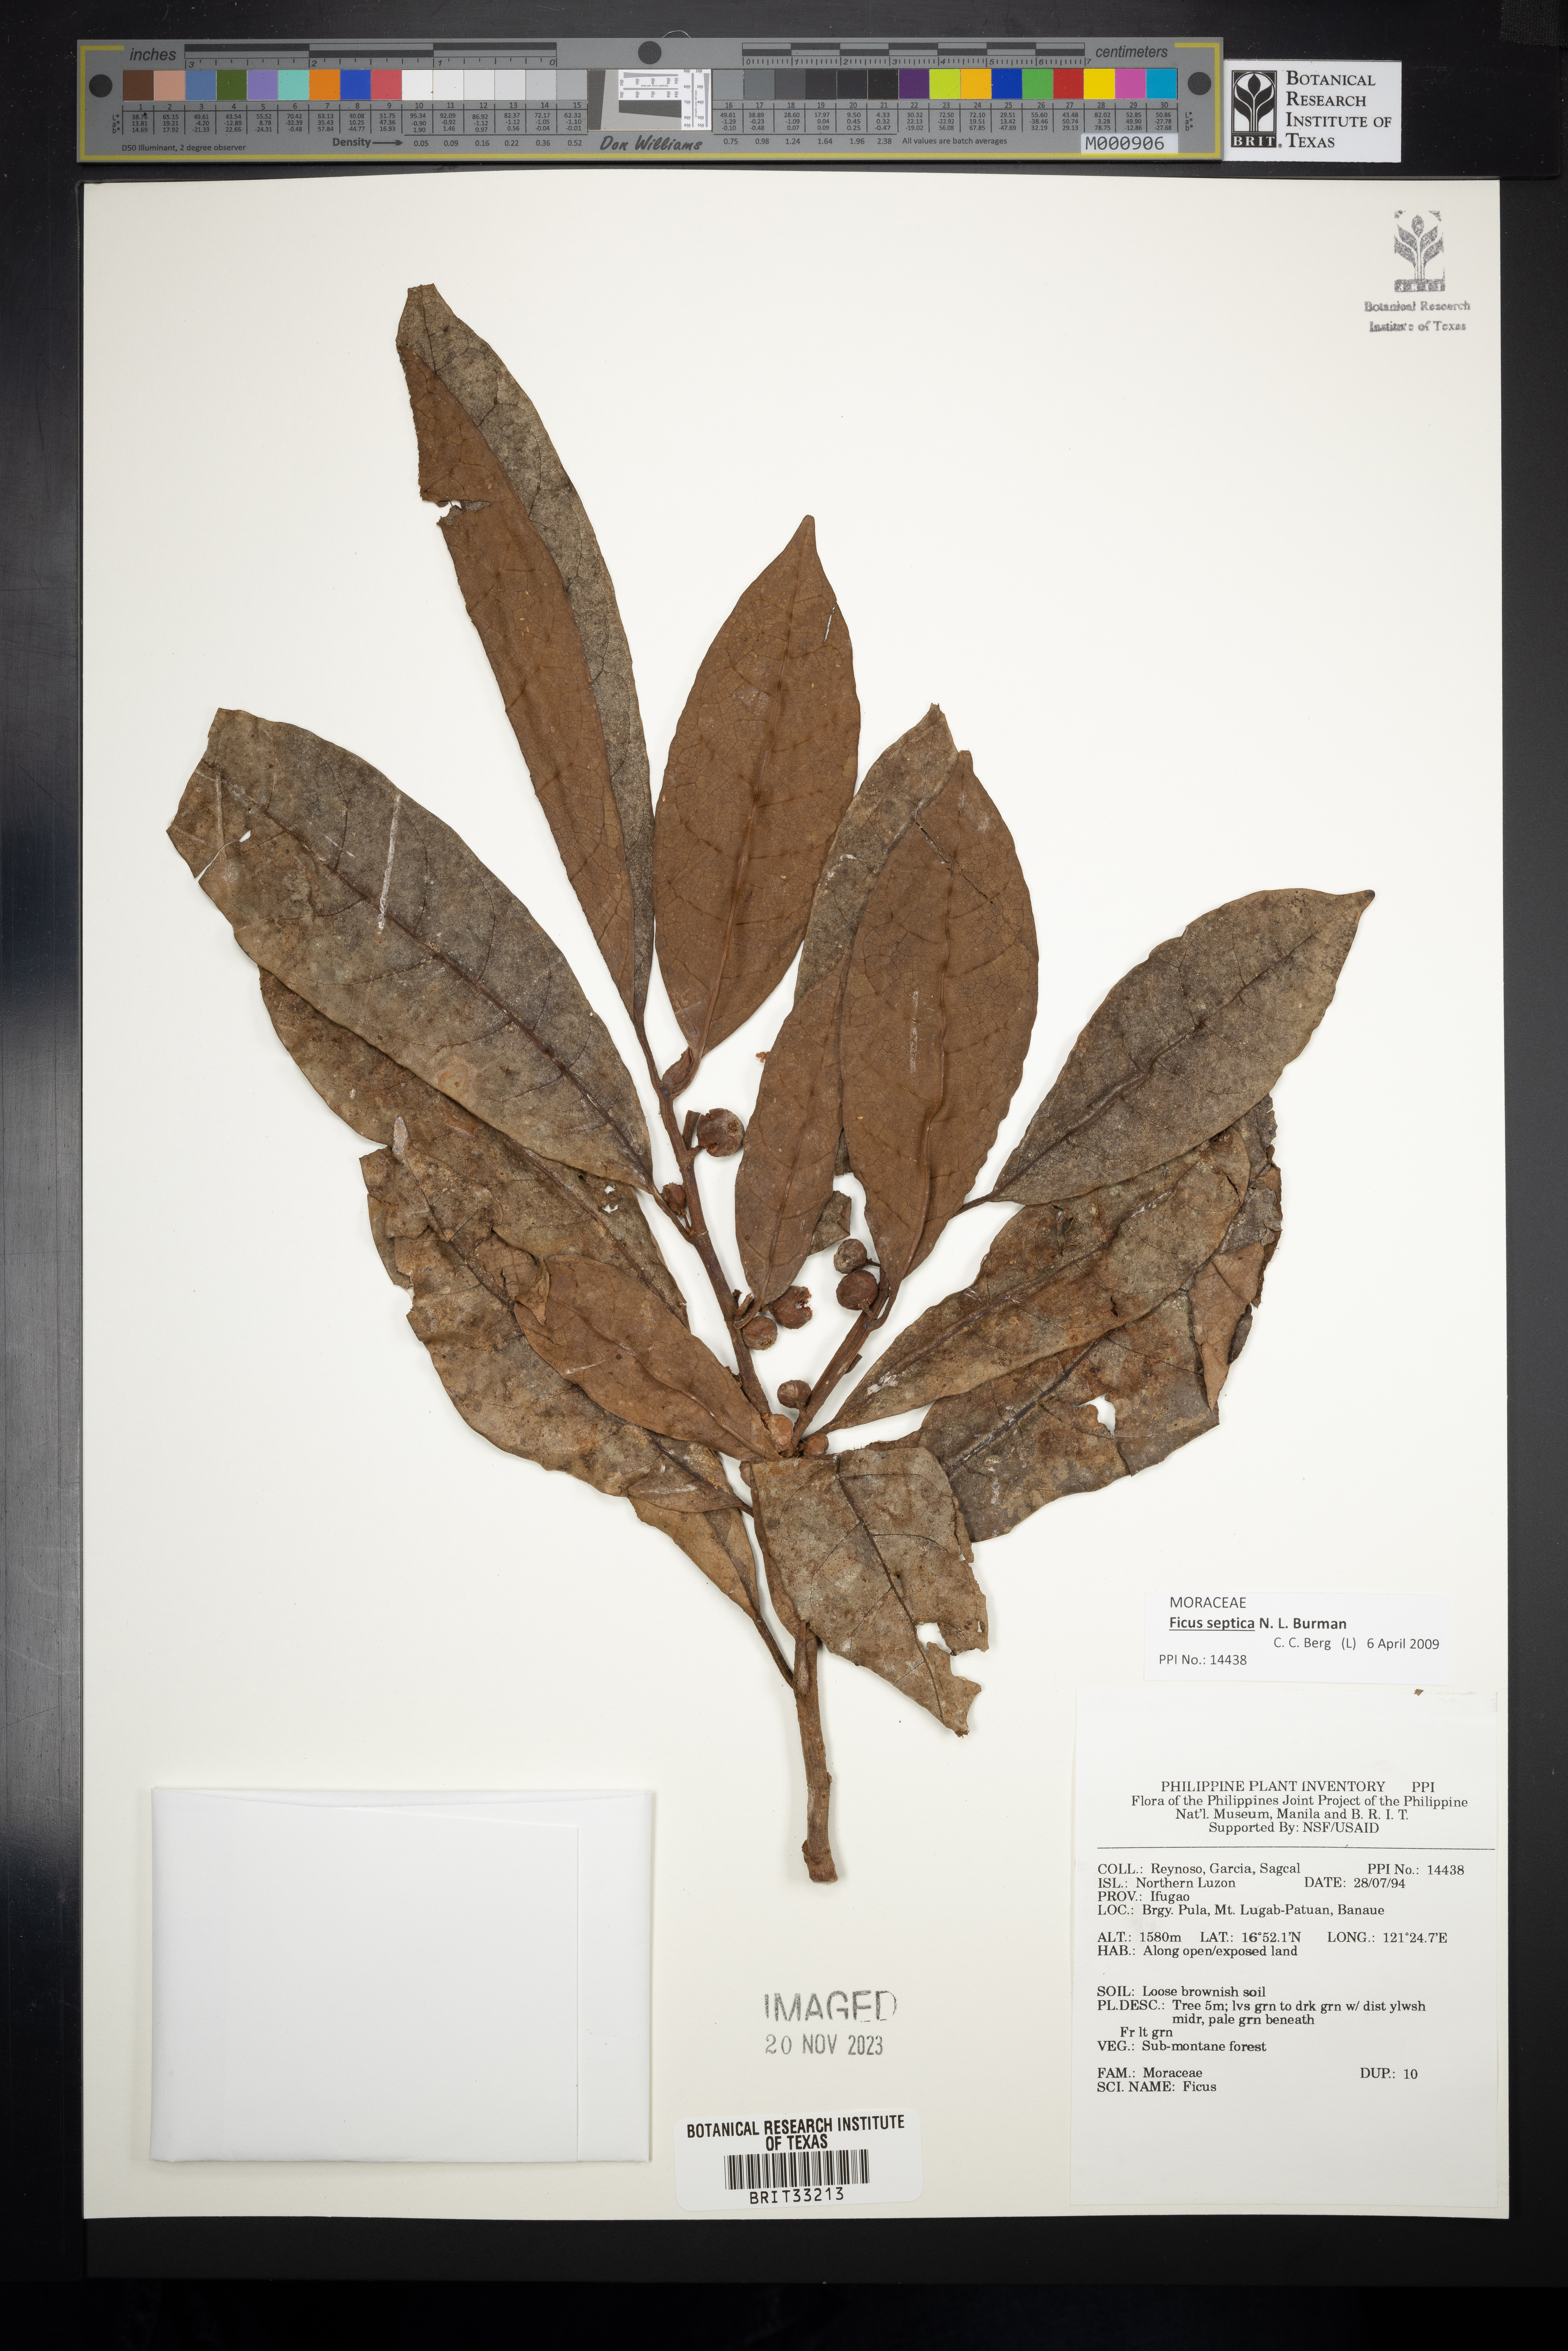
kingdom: Plantae
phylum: Tracheophyta
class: Magnoliopsida
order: Rosales
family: Moraceae
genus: Ficus
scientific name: Ficus
